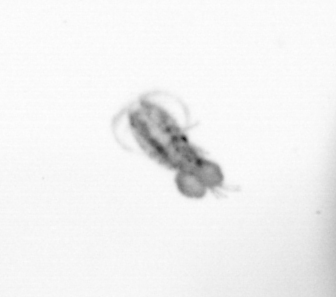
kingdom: Animalia
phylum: Arthropoda
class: Copepoda
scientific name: Copepoda
